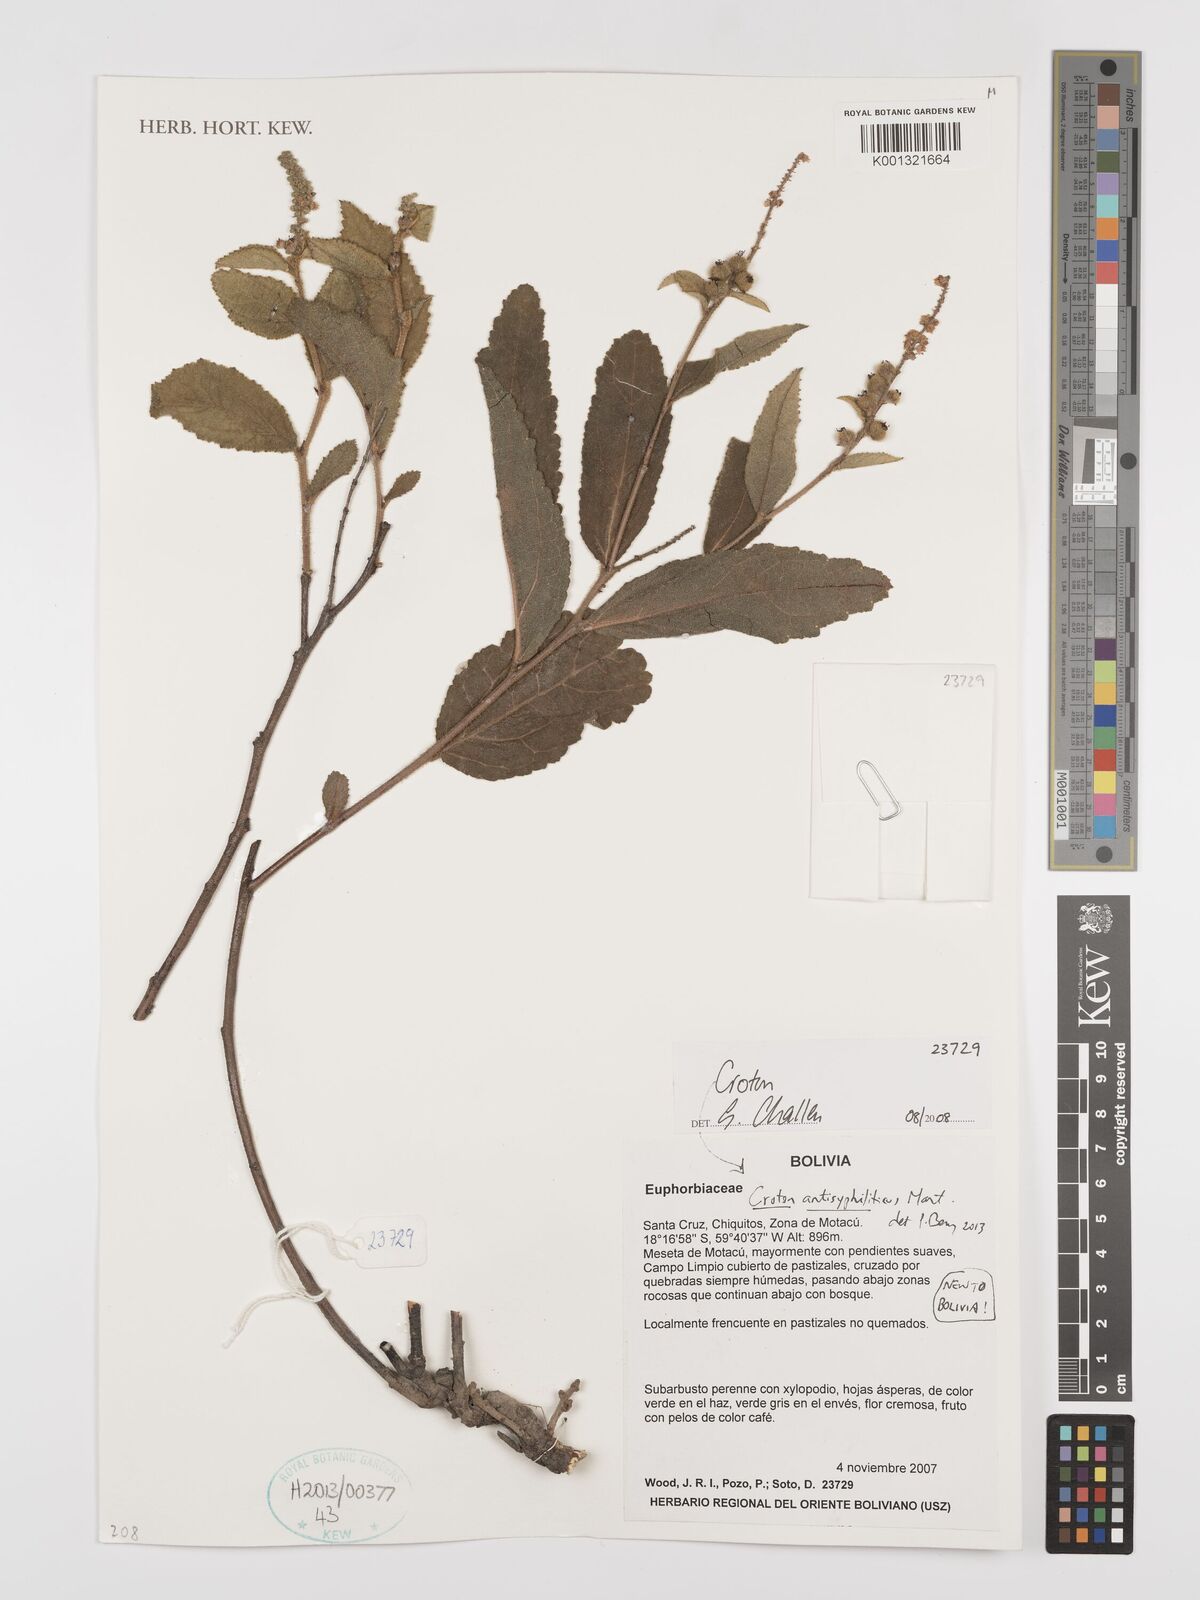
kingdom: Plantae
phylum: Tracheophyta
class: Magnoliopsida
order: Malpighiales
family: Euphorbiaceae
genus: Croton
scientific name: Croton antisyphiliticus
